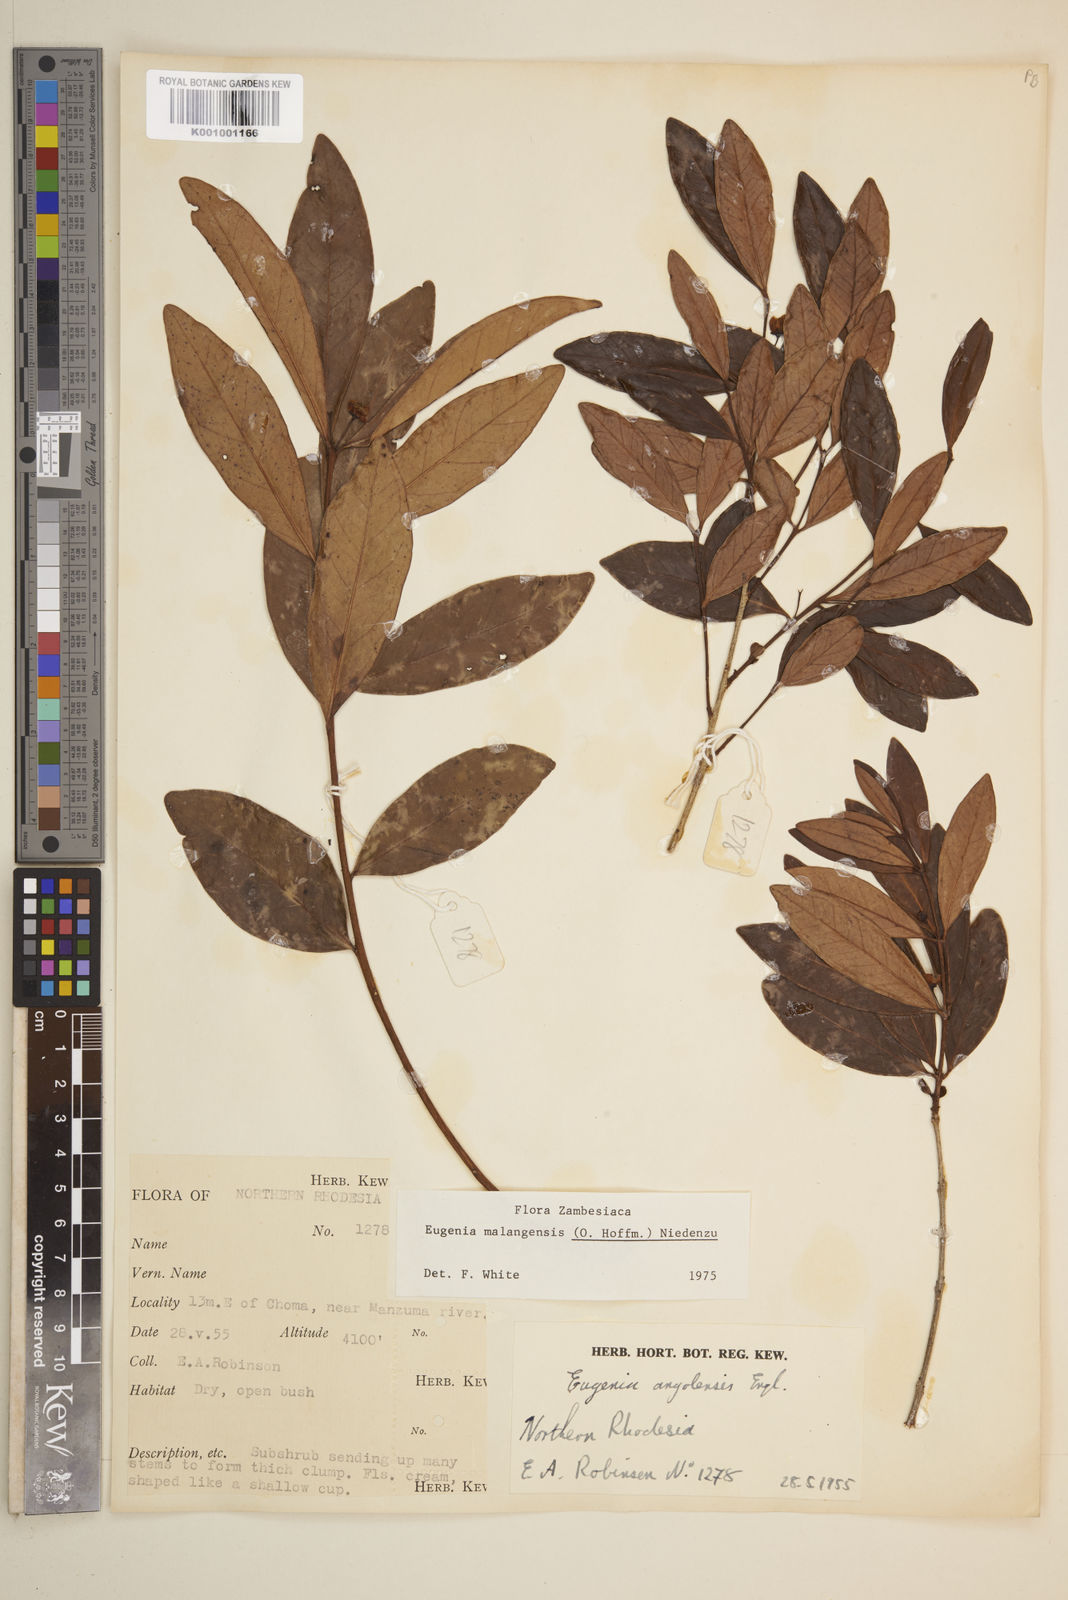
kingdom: Plantae
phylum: Tracheophyta
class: Magnoliopsida
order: Myrtales
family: Myrtaceae
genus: Eugenia
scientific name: Eugenia malangensis
